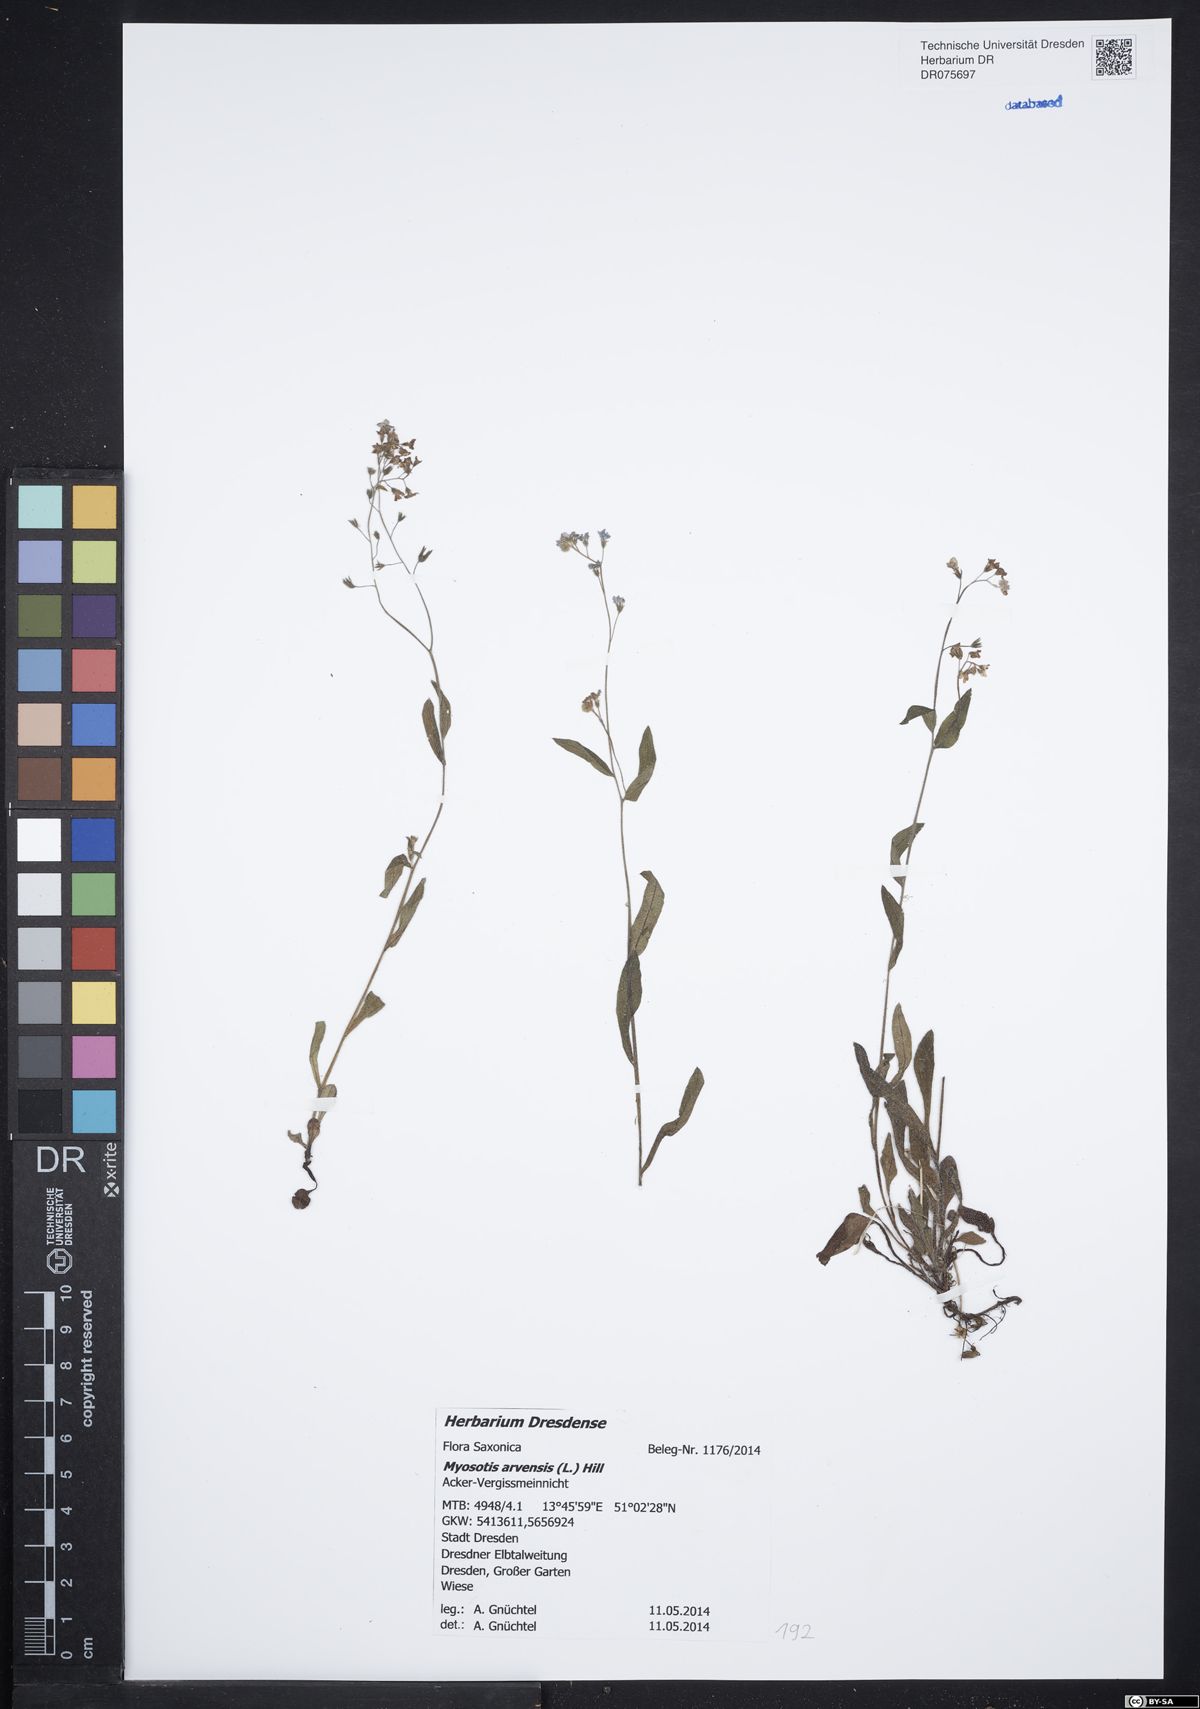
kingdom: Plantae
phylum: Tracheophyta
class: Magnoliopsida
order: Boraginales
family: Boraginaceae
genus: Myosotis
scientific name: Myosotis arvensis
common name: Field forget-me-not
